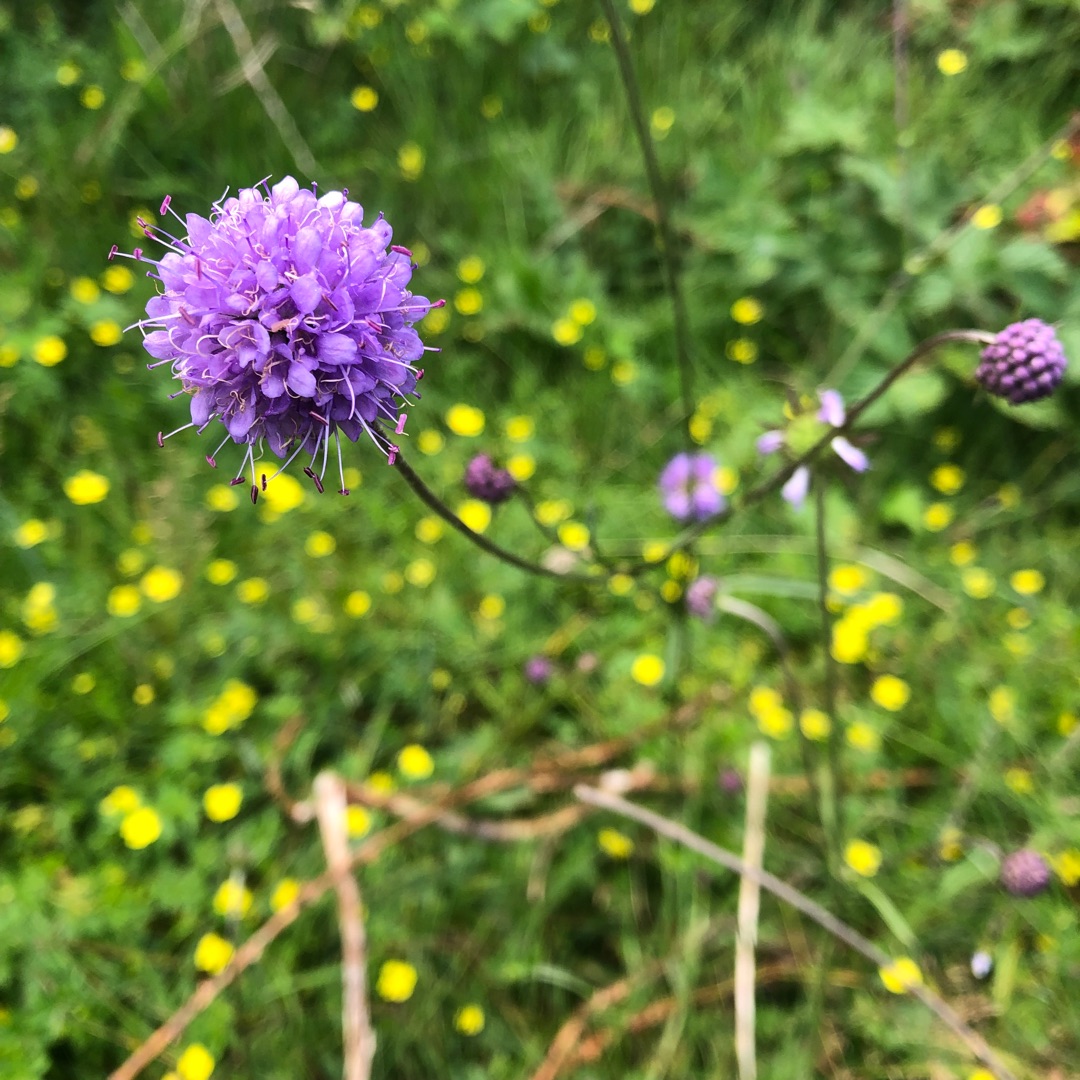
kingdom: Plantae
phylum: Tracheophyta
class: Magnoliopsida
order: Dipsacales
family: Caprifoliaceae
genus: Succisa
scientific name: Succisa pratensis
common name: Djævelsbid
